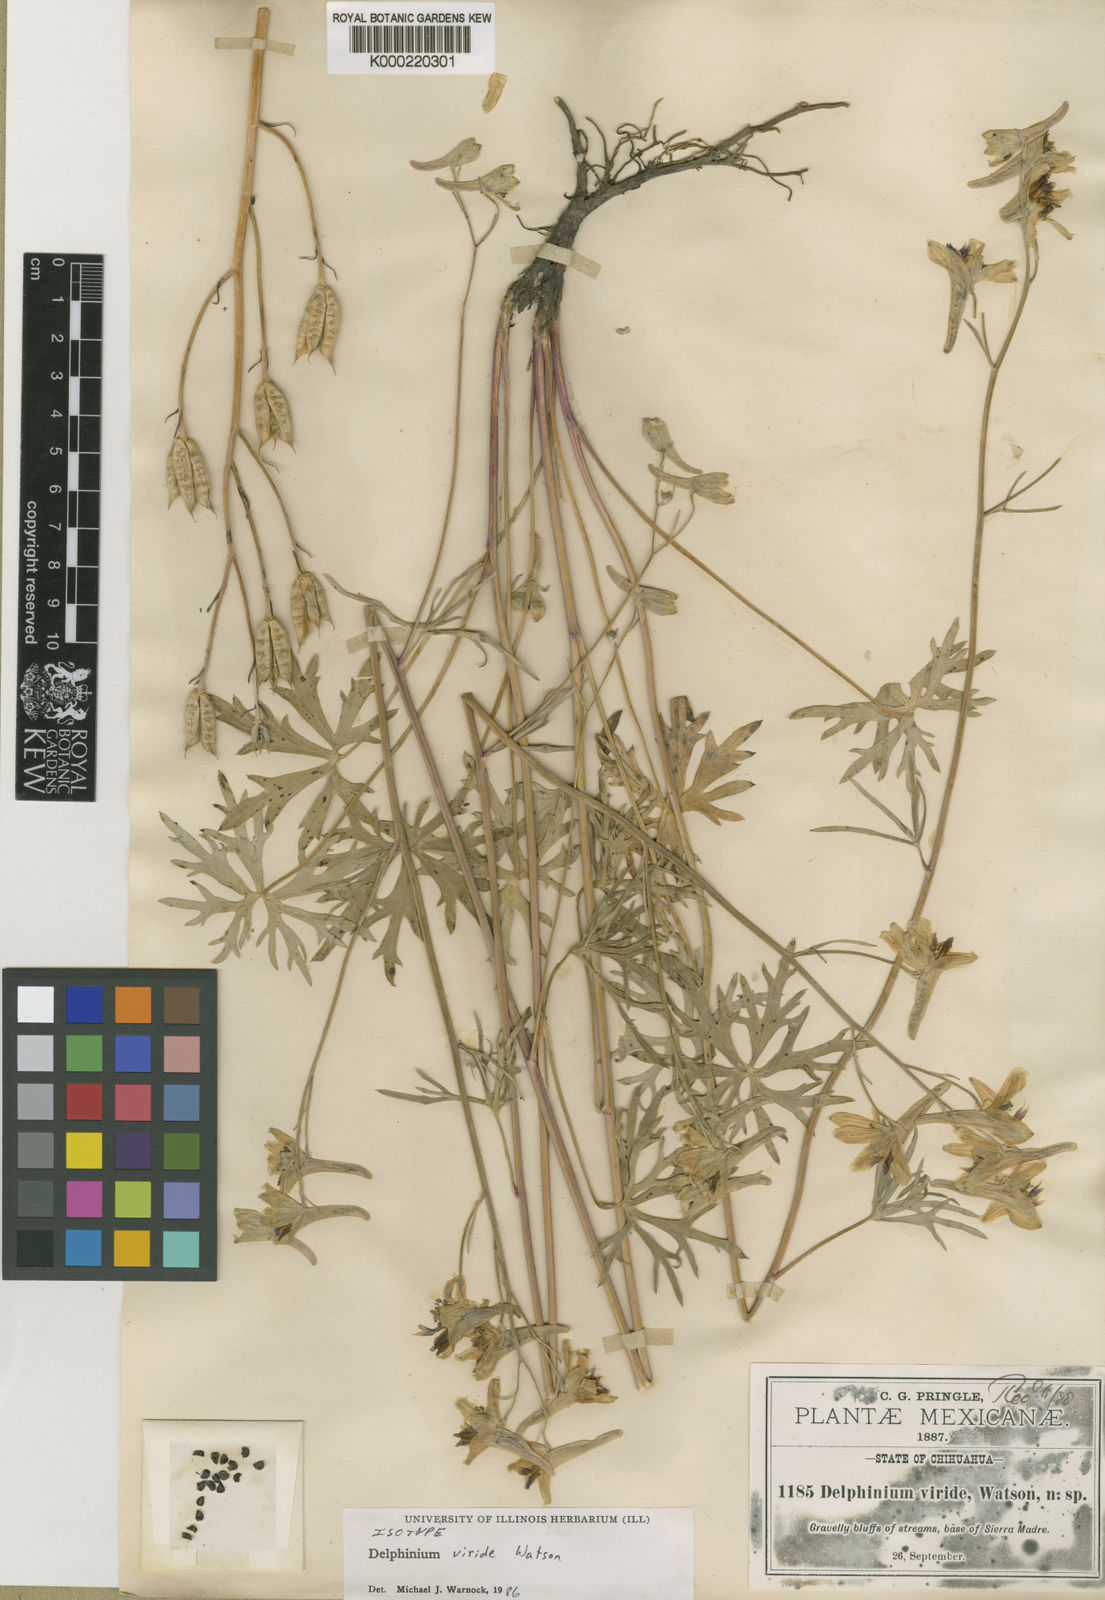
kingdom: Plantae
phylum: Tracheophyta
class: Magnoliopsida
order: Ranunculales
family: Ranunculaceae
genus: Delphinium
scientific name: Delphinium viride
